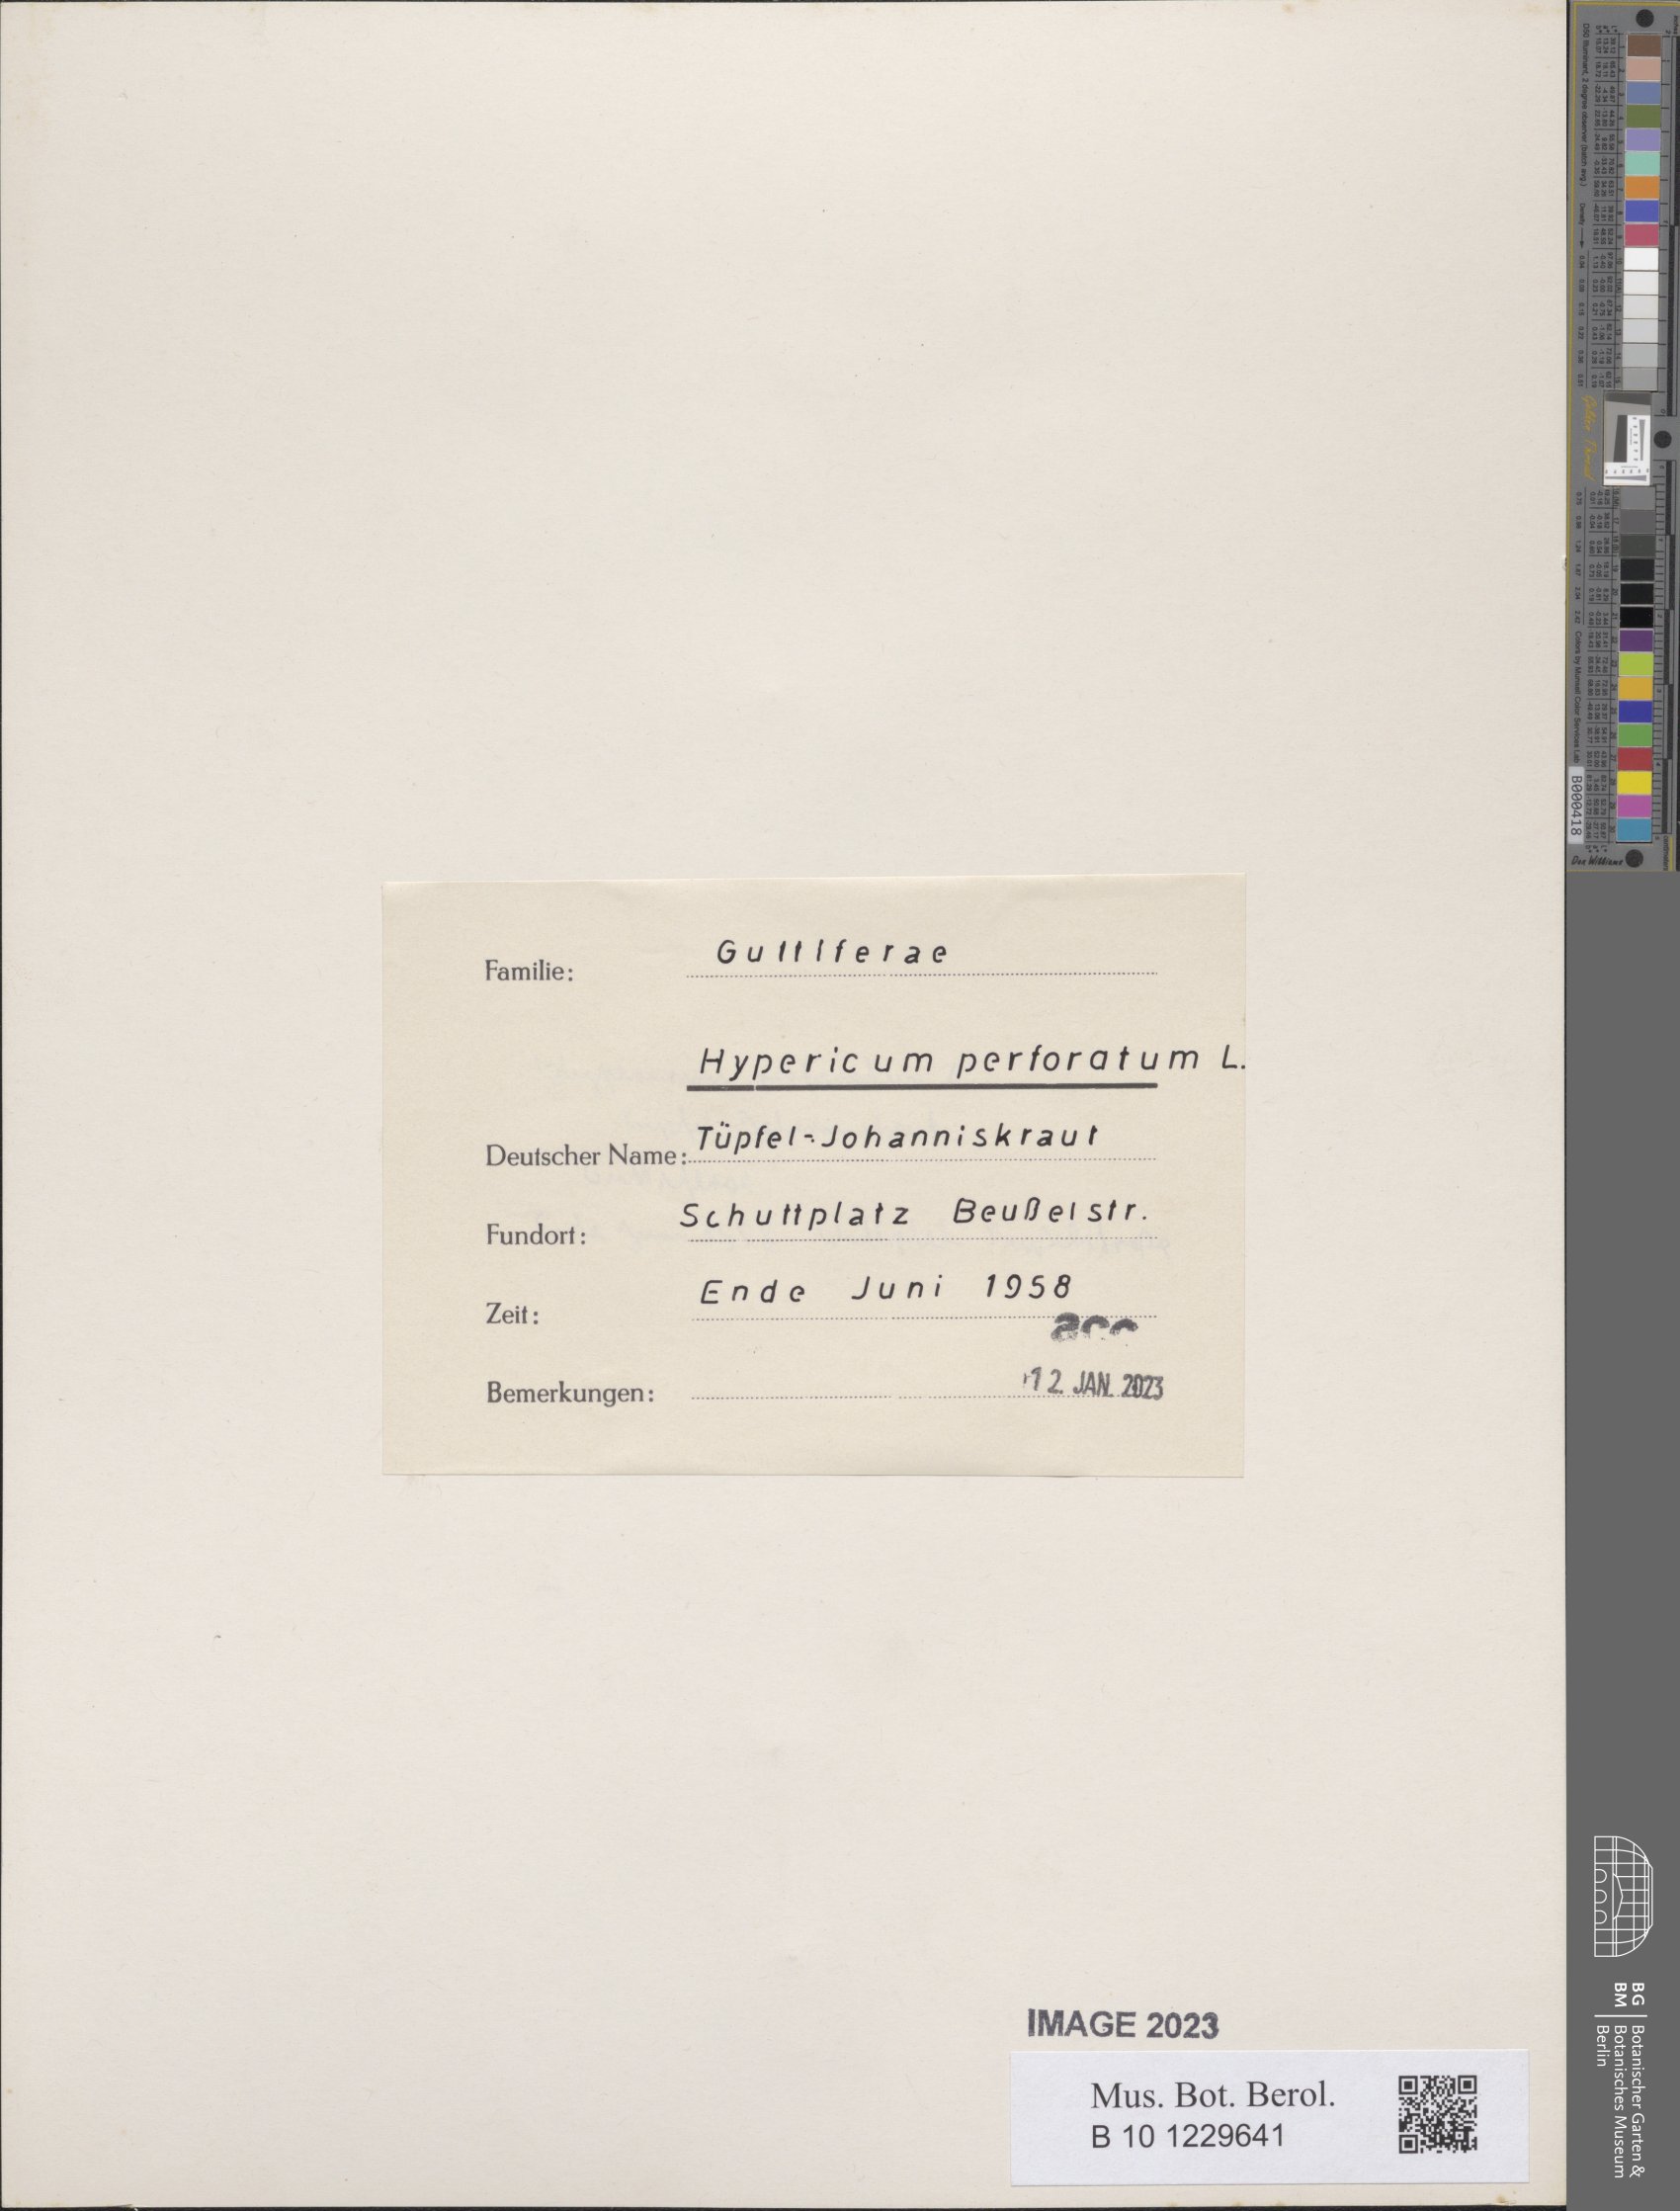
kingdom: Plantae
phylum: Tracheophyta
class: Magnoliopsida
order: Malpighiales
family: Hypericaceae
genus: Hypericum
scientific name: Hypericum perforatum
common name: Common st. johnswort
